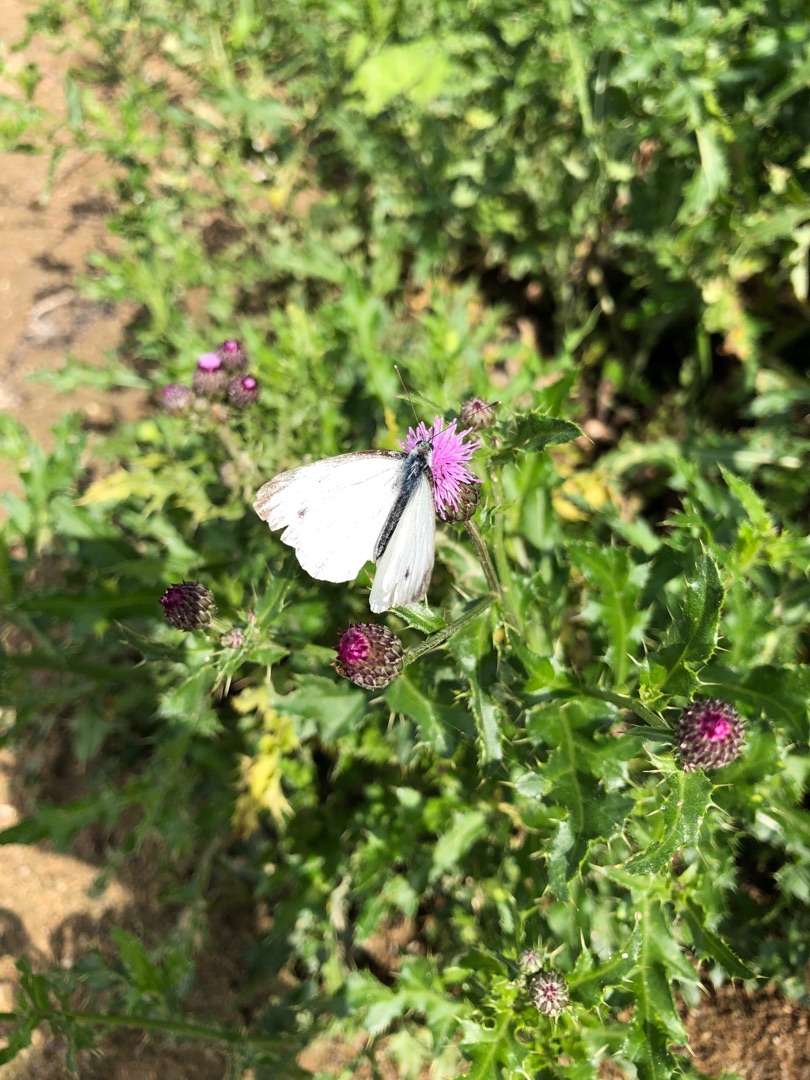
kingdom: Animalia
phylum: Arthropoda
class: Insecta
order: Lepidoptera
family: Pieridae
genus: Pieris
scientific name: Pieris napi
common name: Grønåret kålsommerfugl
